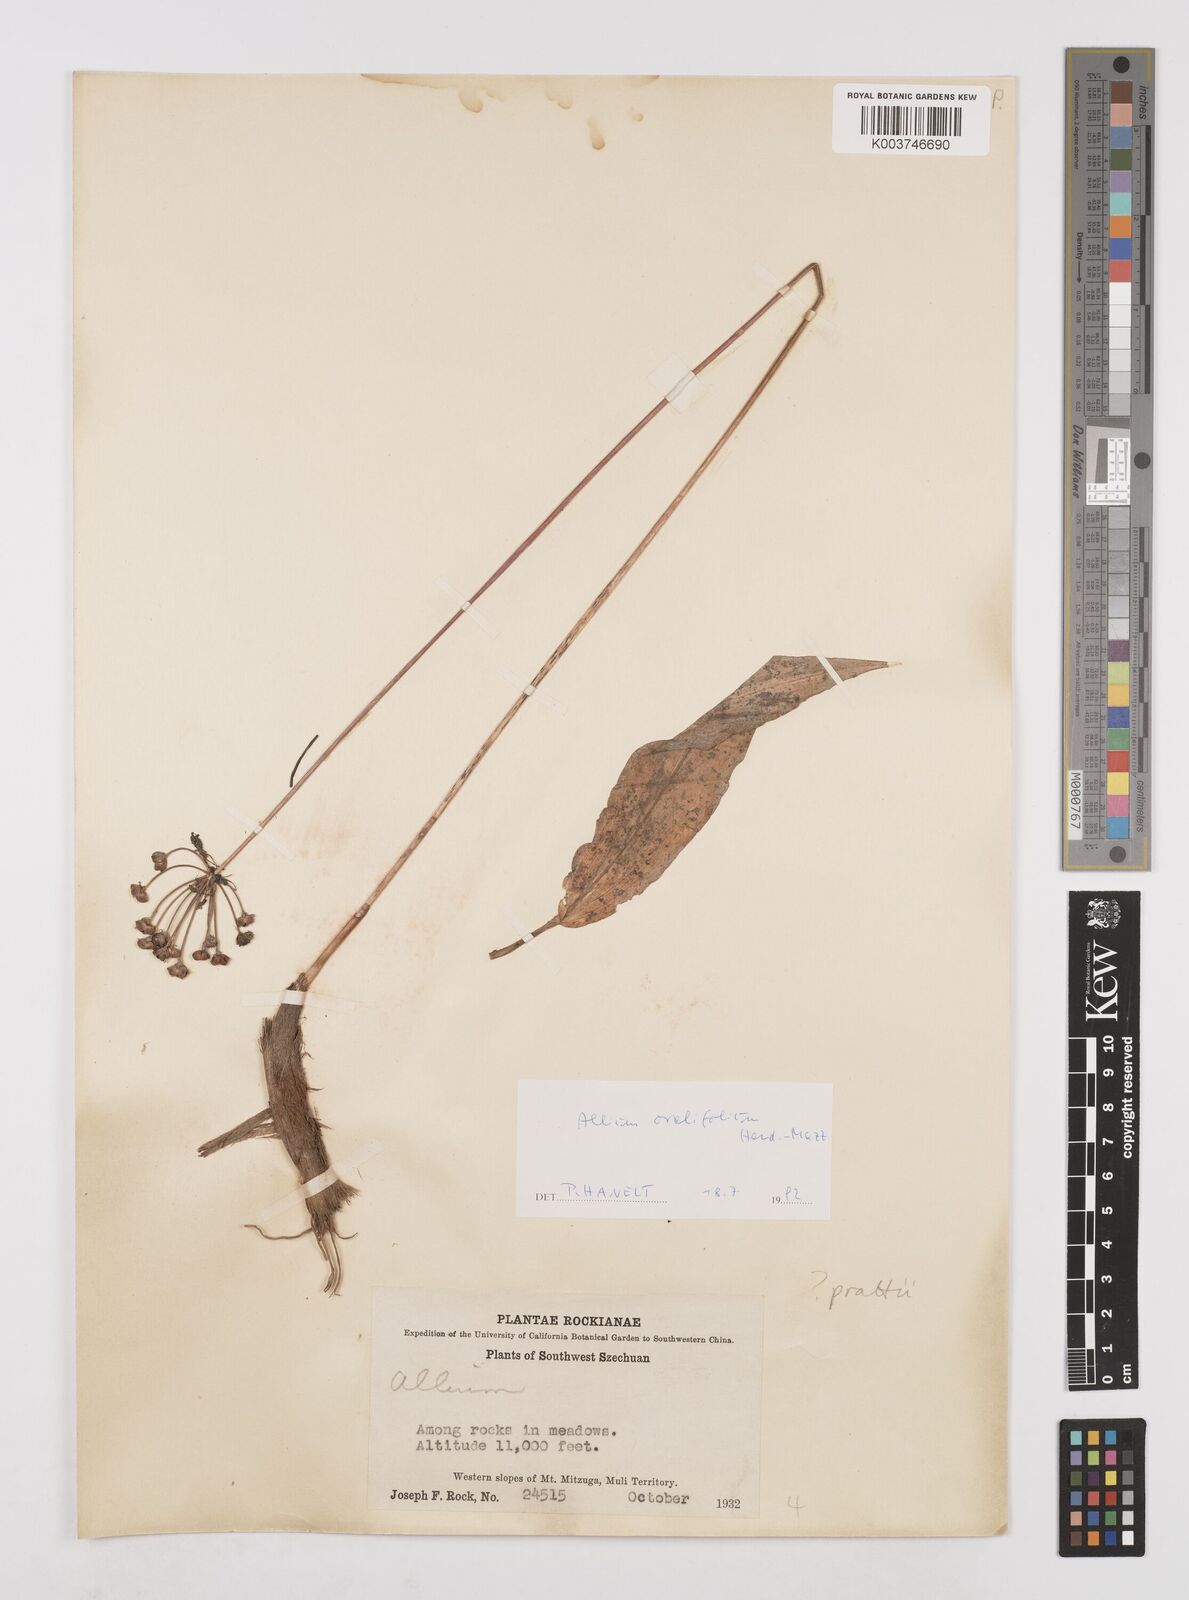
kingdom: Plantae
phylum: Tracheophyta
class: Liliopsida
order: Asparagales
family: Amaryllidaceae
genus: Allium
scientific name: Allium ovalifolium
